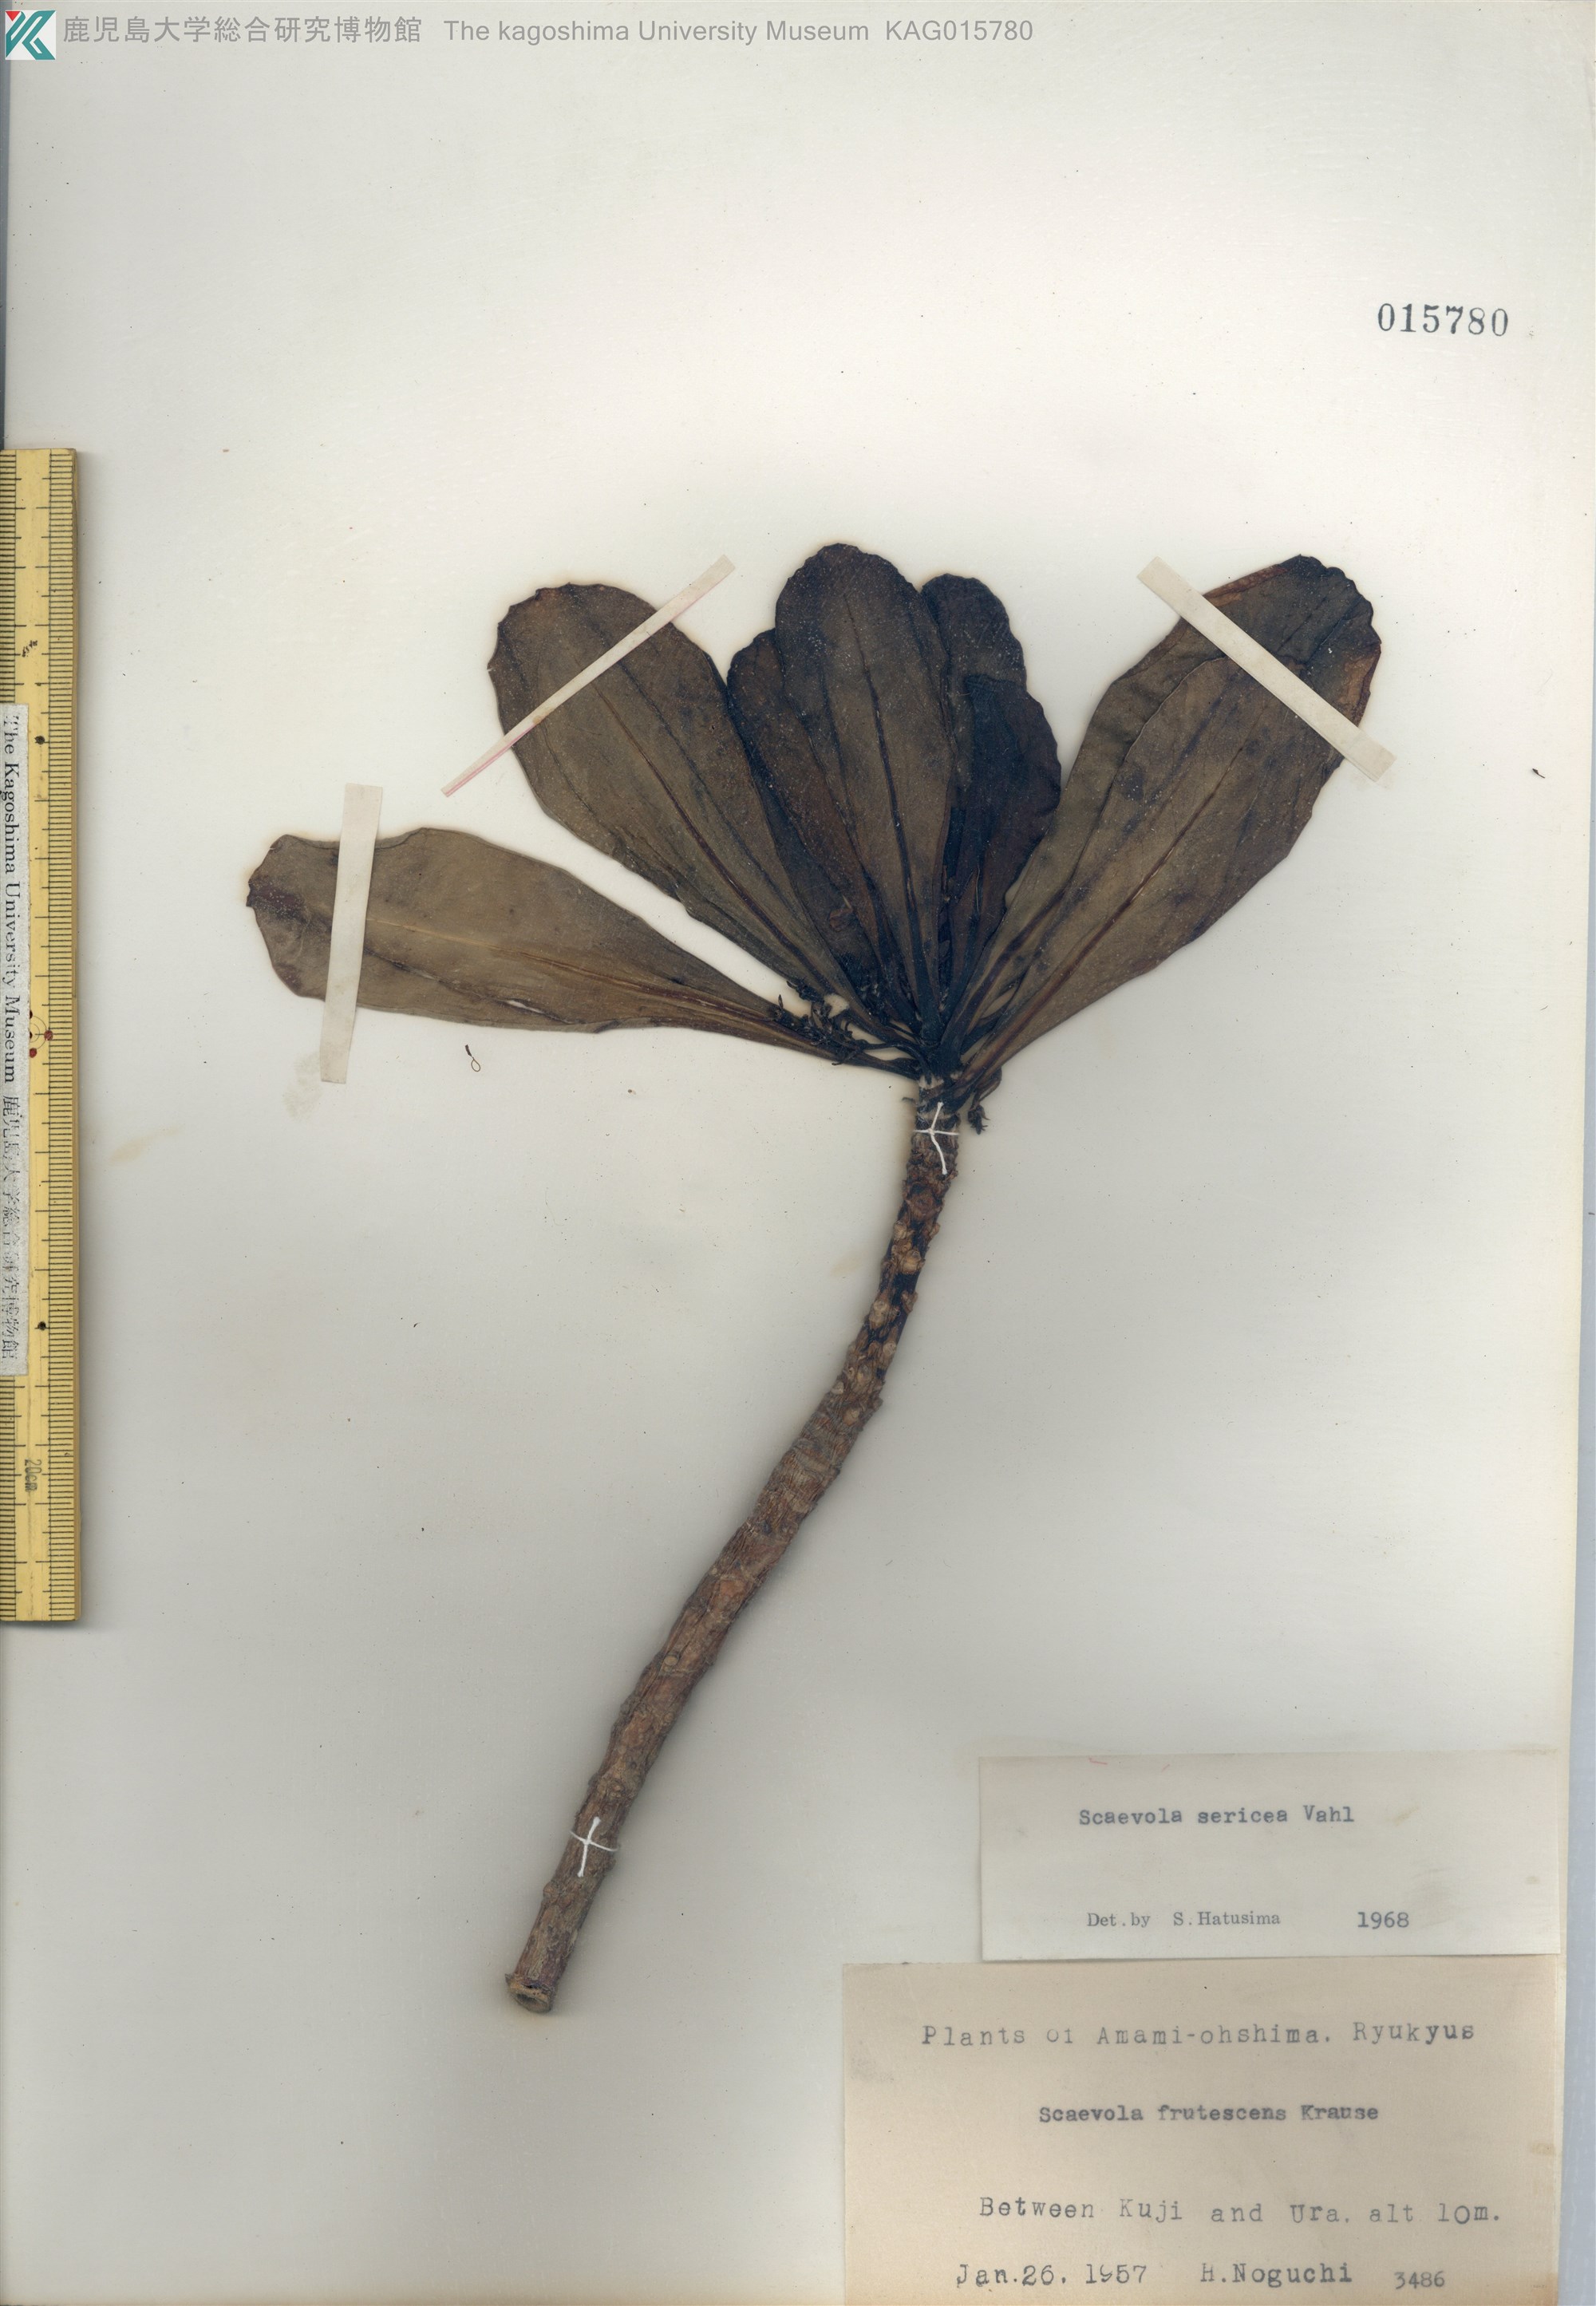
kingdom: Plantae
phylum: Tracheophyta
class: Magnoliopsida
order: Asterales
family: Goodeniaceae
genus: Scaevola
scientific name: Scaevola taccada
